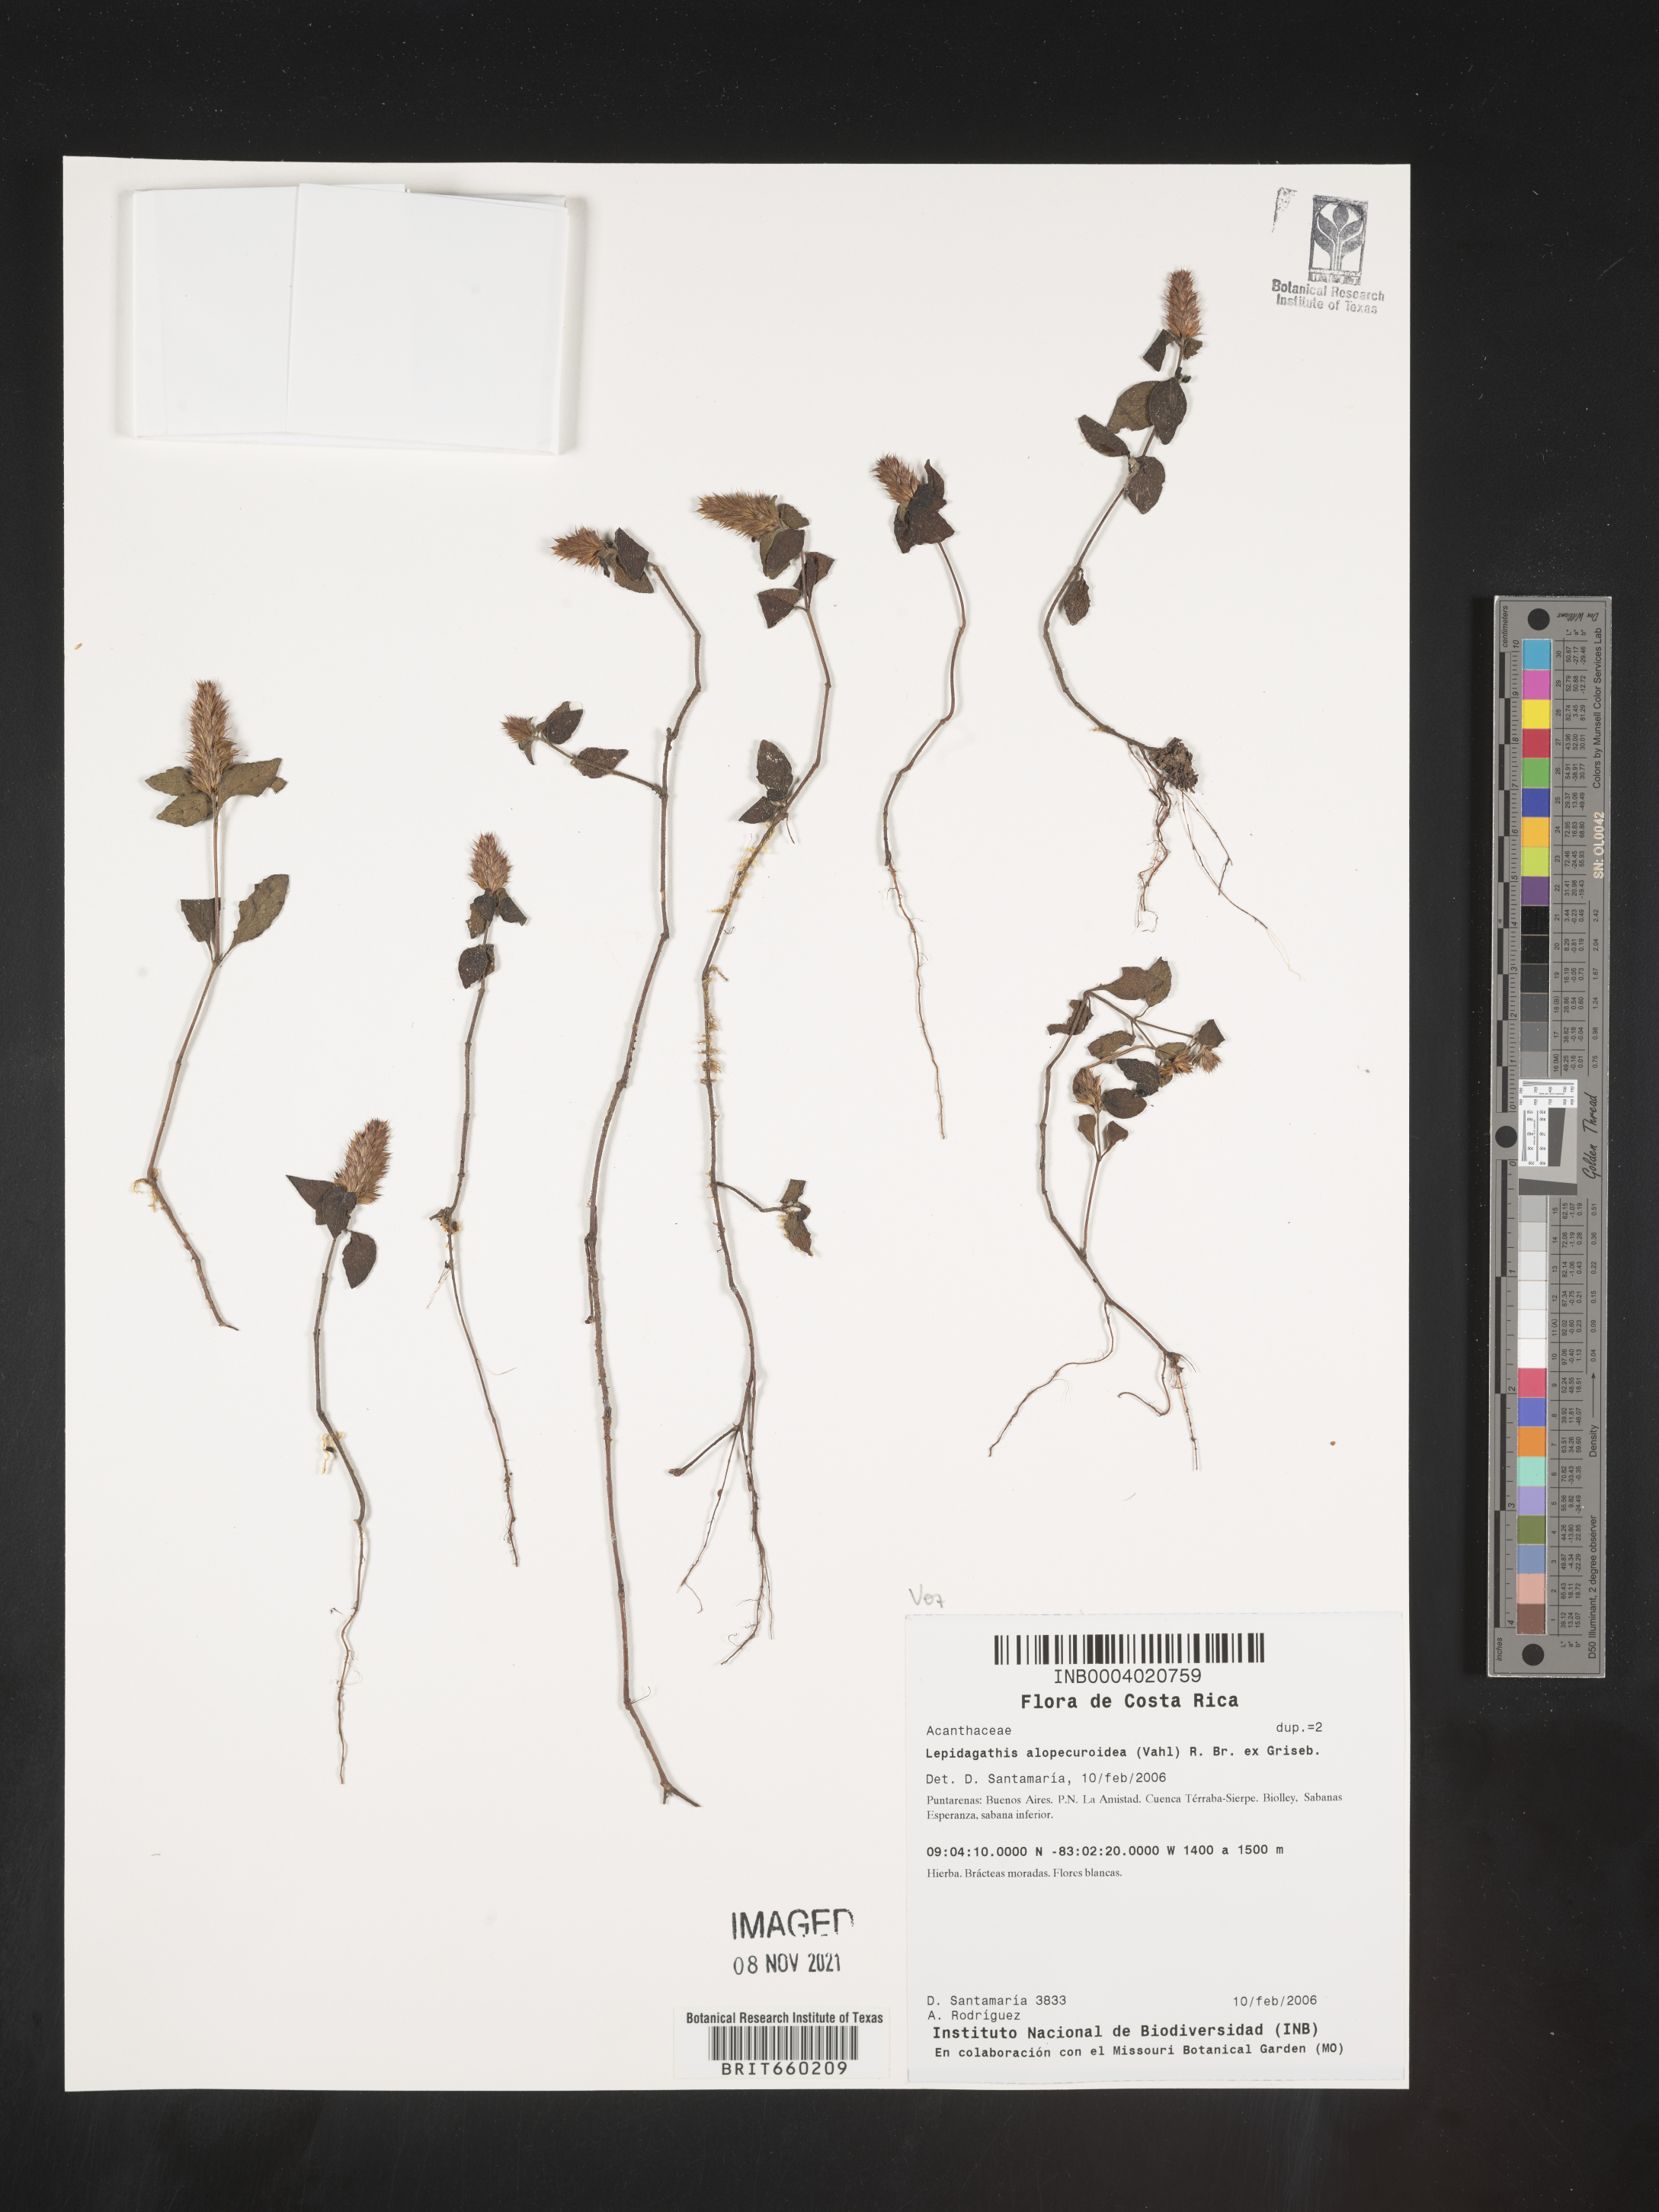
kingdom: Plantae
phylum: Tracheophyta
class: Magnoliopsida
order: Lamiales
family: Acanthaceae
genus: Lepidagathis
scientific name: Lepidagathis
